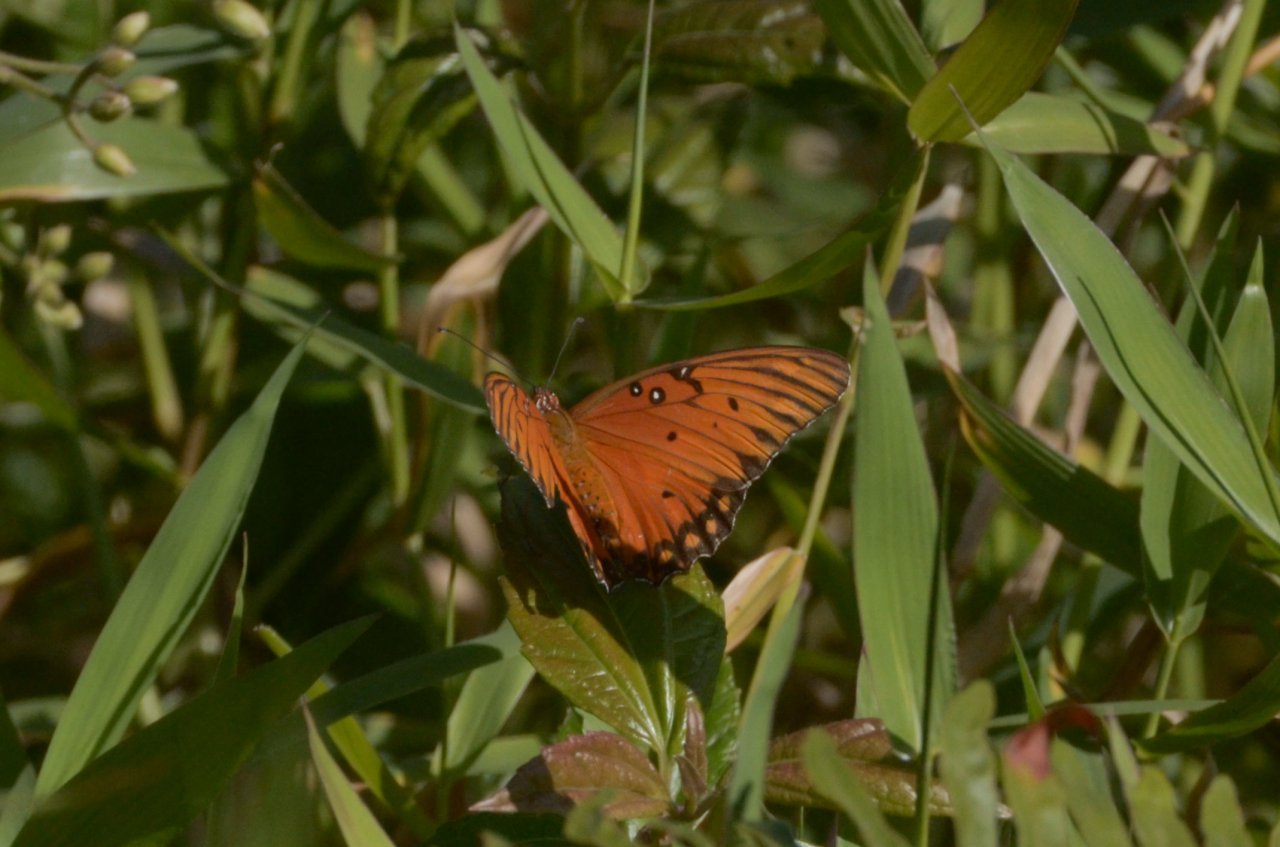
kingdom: Animalia
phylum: Arthropoda
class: Insecta
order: Lepidoptera
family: Nymphalidae
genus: Dione
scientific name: Dione vanillae
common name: Gulf Fritillary
